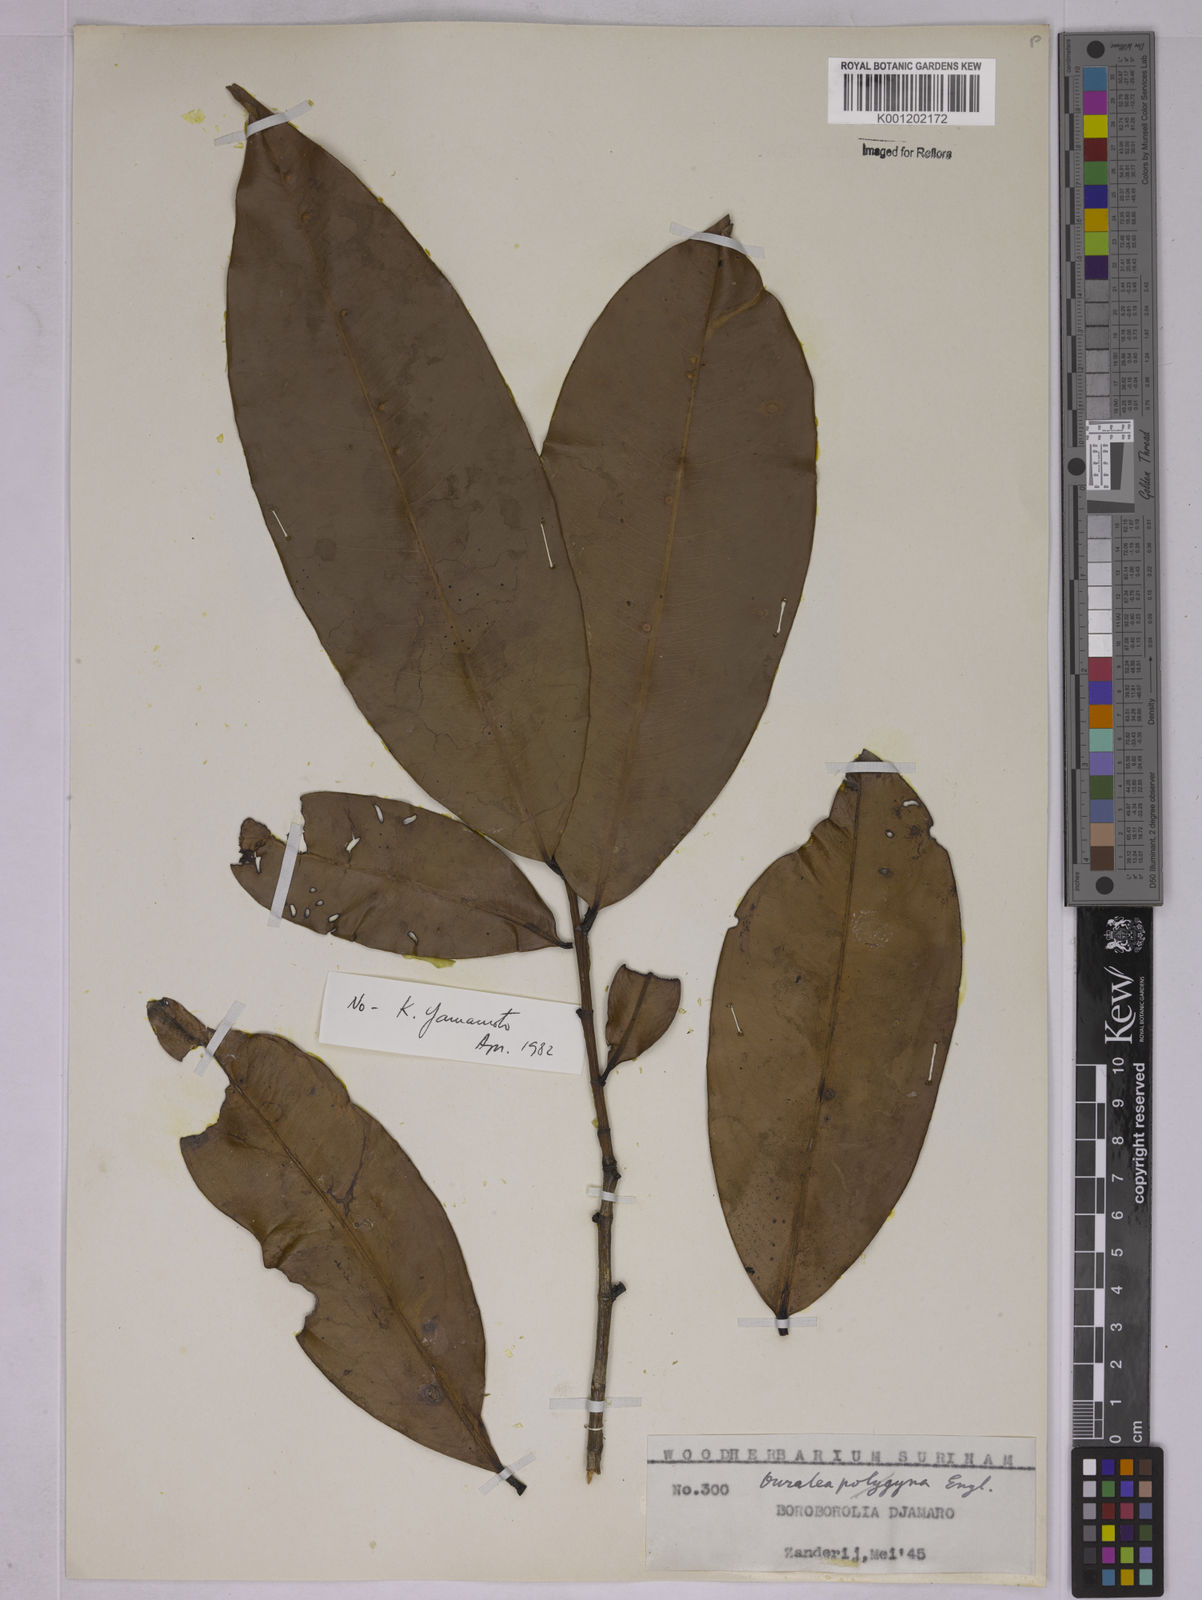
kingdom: Plantae
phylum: Tracheophyta
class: Magnoliopsida
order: Malpighiales
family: Ochnaceae
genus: Ouratea
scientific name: Ouratea
